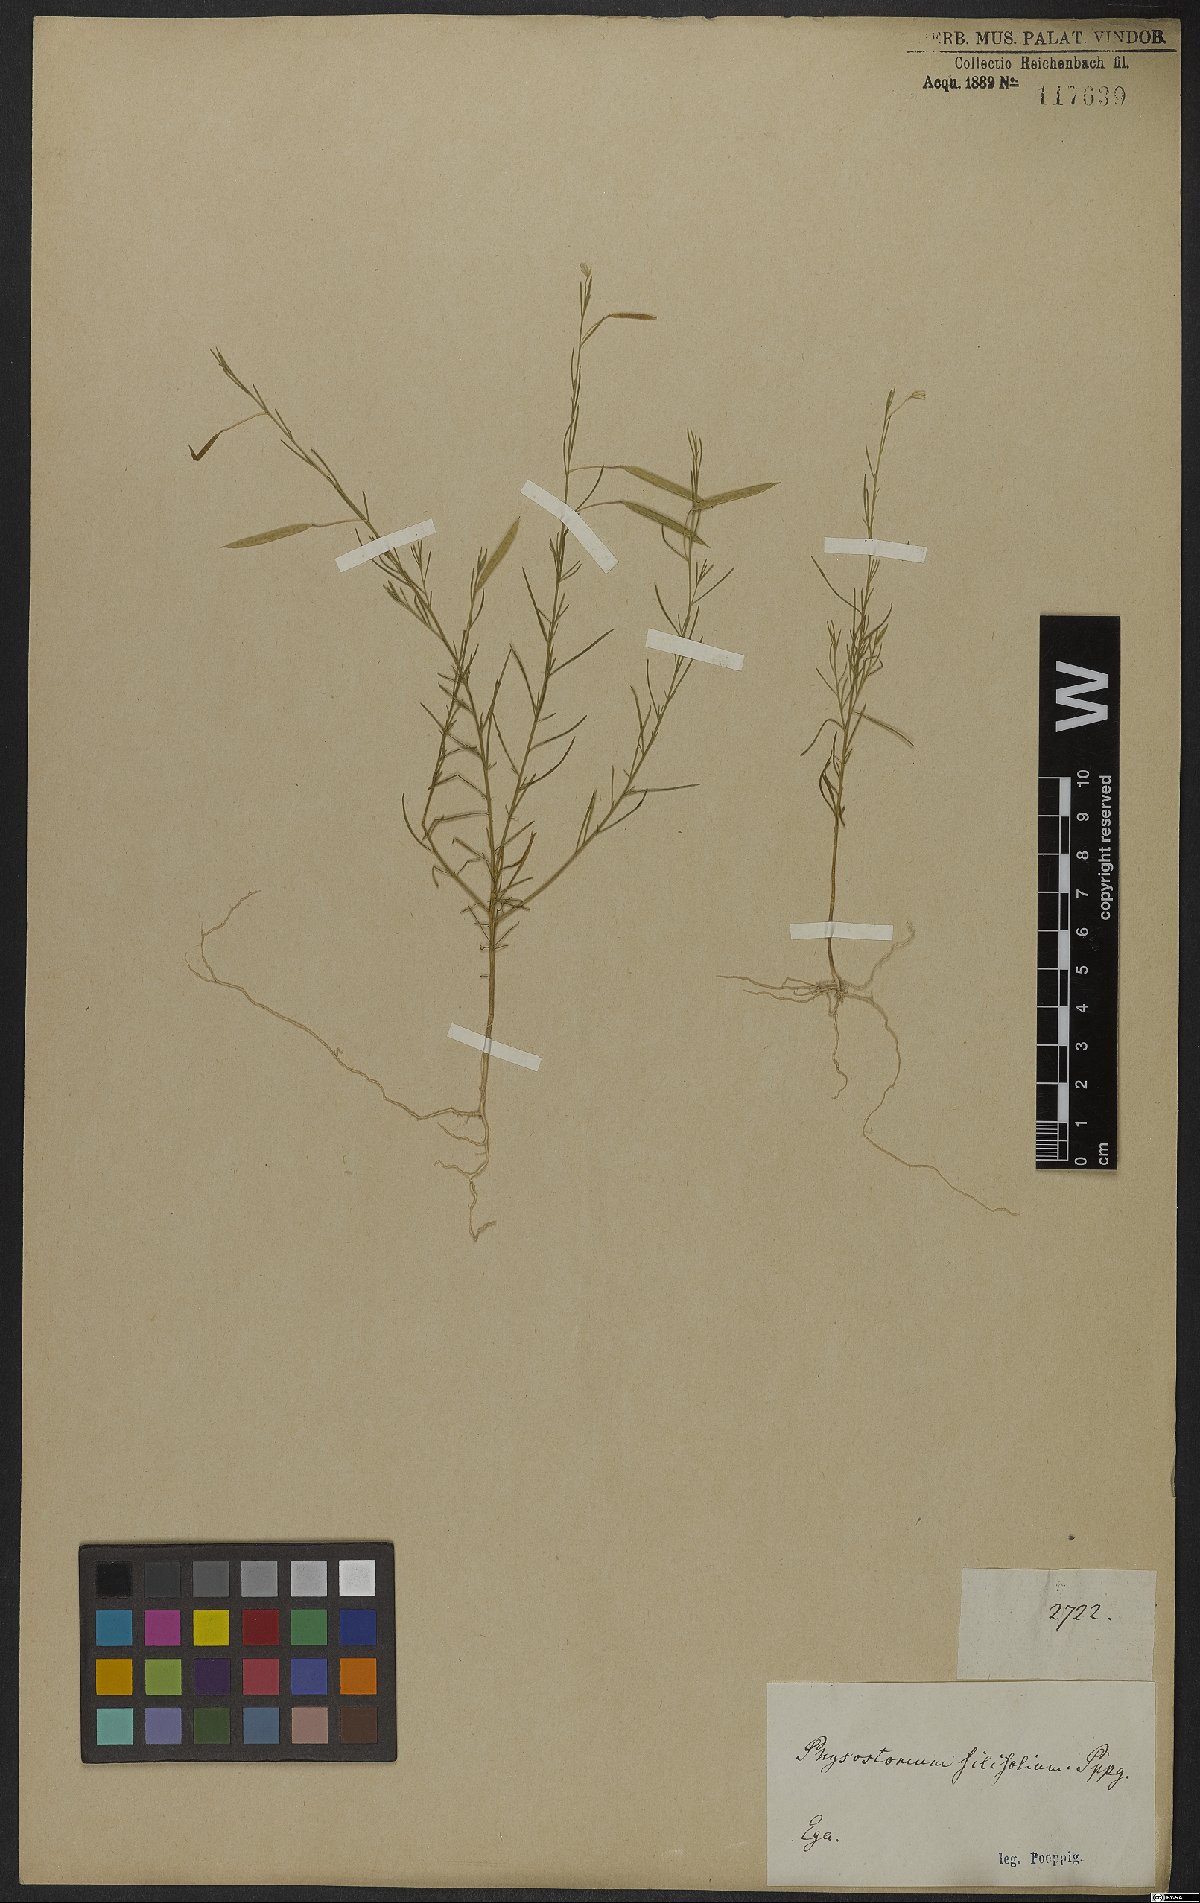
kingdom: Plantae
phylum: Tracheophyta
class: Magnoliopsida
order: Brassicales
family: Cleomaceae
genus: Andinocleome
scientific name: Andinocleome anomala
